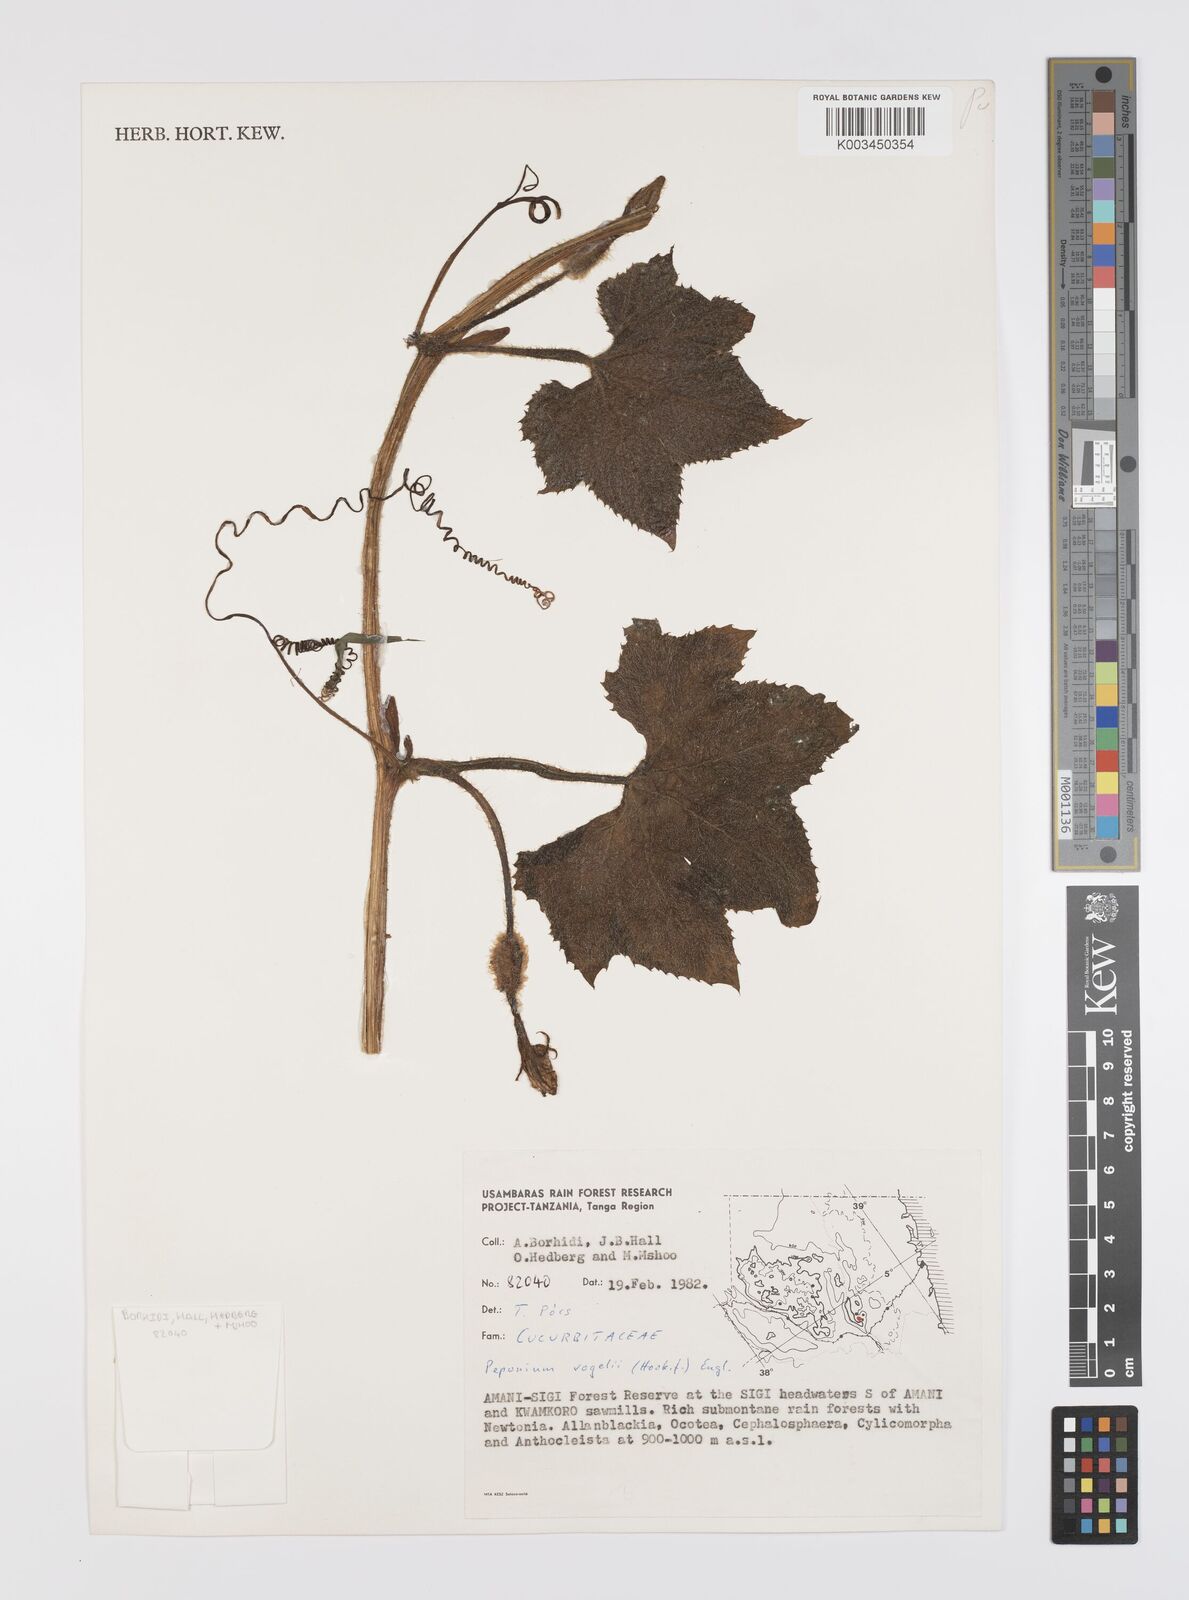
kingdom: Plantae
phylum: Tracheophyta
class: Magnoliopsida
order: Cucurbitales
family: Cucurbitaceae
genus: Peponium
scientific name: Peponium vogelii
